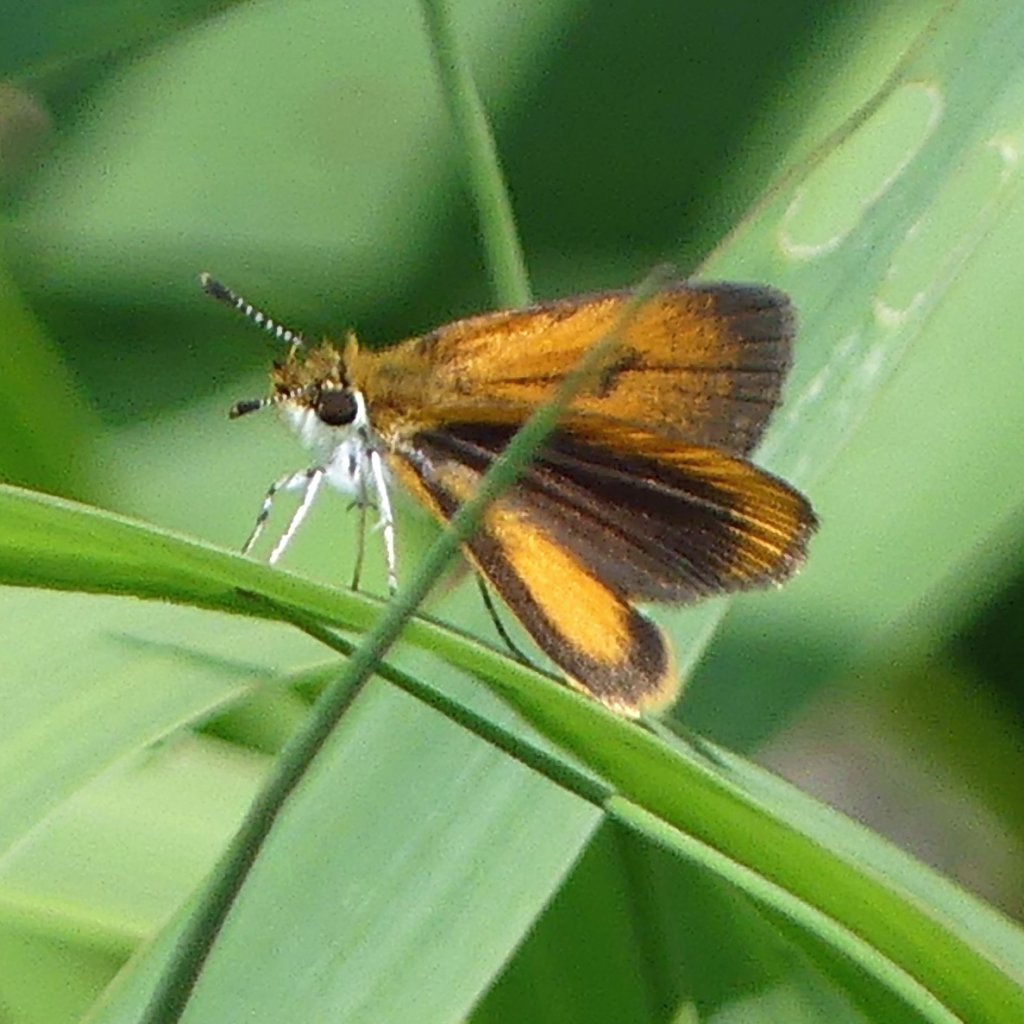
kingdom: Animalia
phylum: Arthropoda
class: Insecta
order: Lepidoptera
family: Hesperiidae
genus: Ancyloxypha
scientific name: Ancyloxypha numitor
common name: Least Skipper
